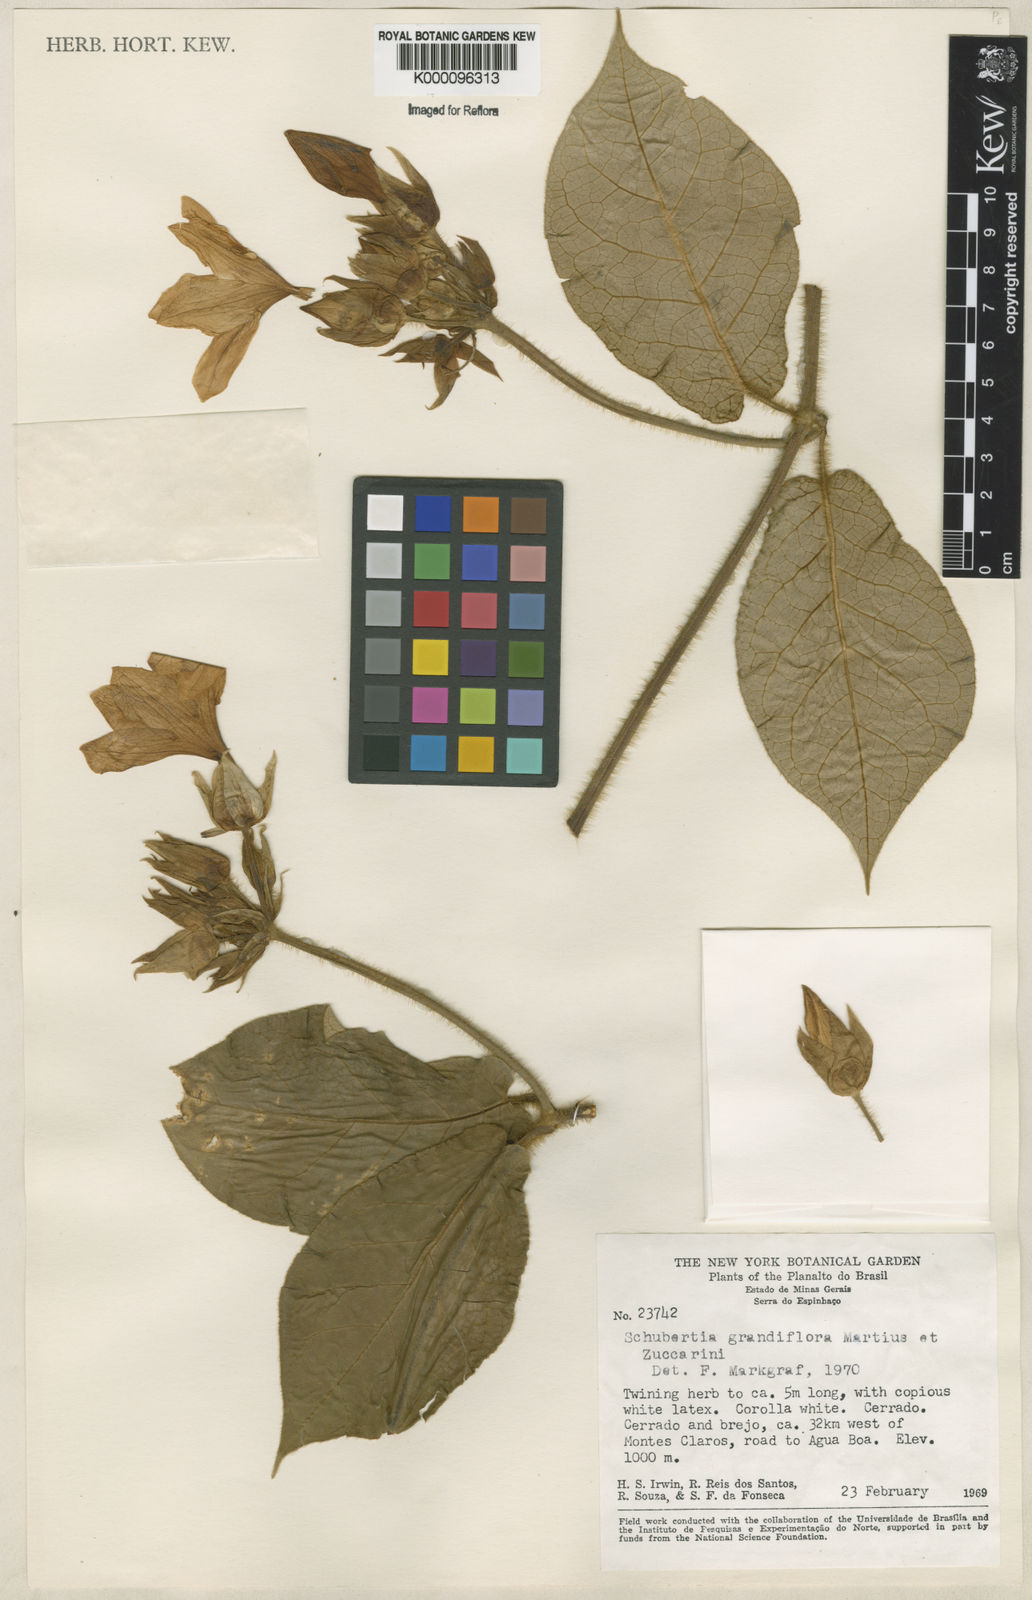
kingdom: Plantae
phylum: Tracheophyta
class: Magnoliopsida
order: Gentianales
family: Apocynaceae
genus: Macroscepis
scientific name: Macroscepis grandiflora
